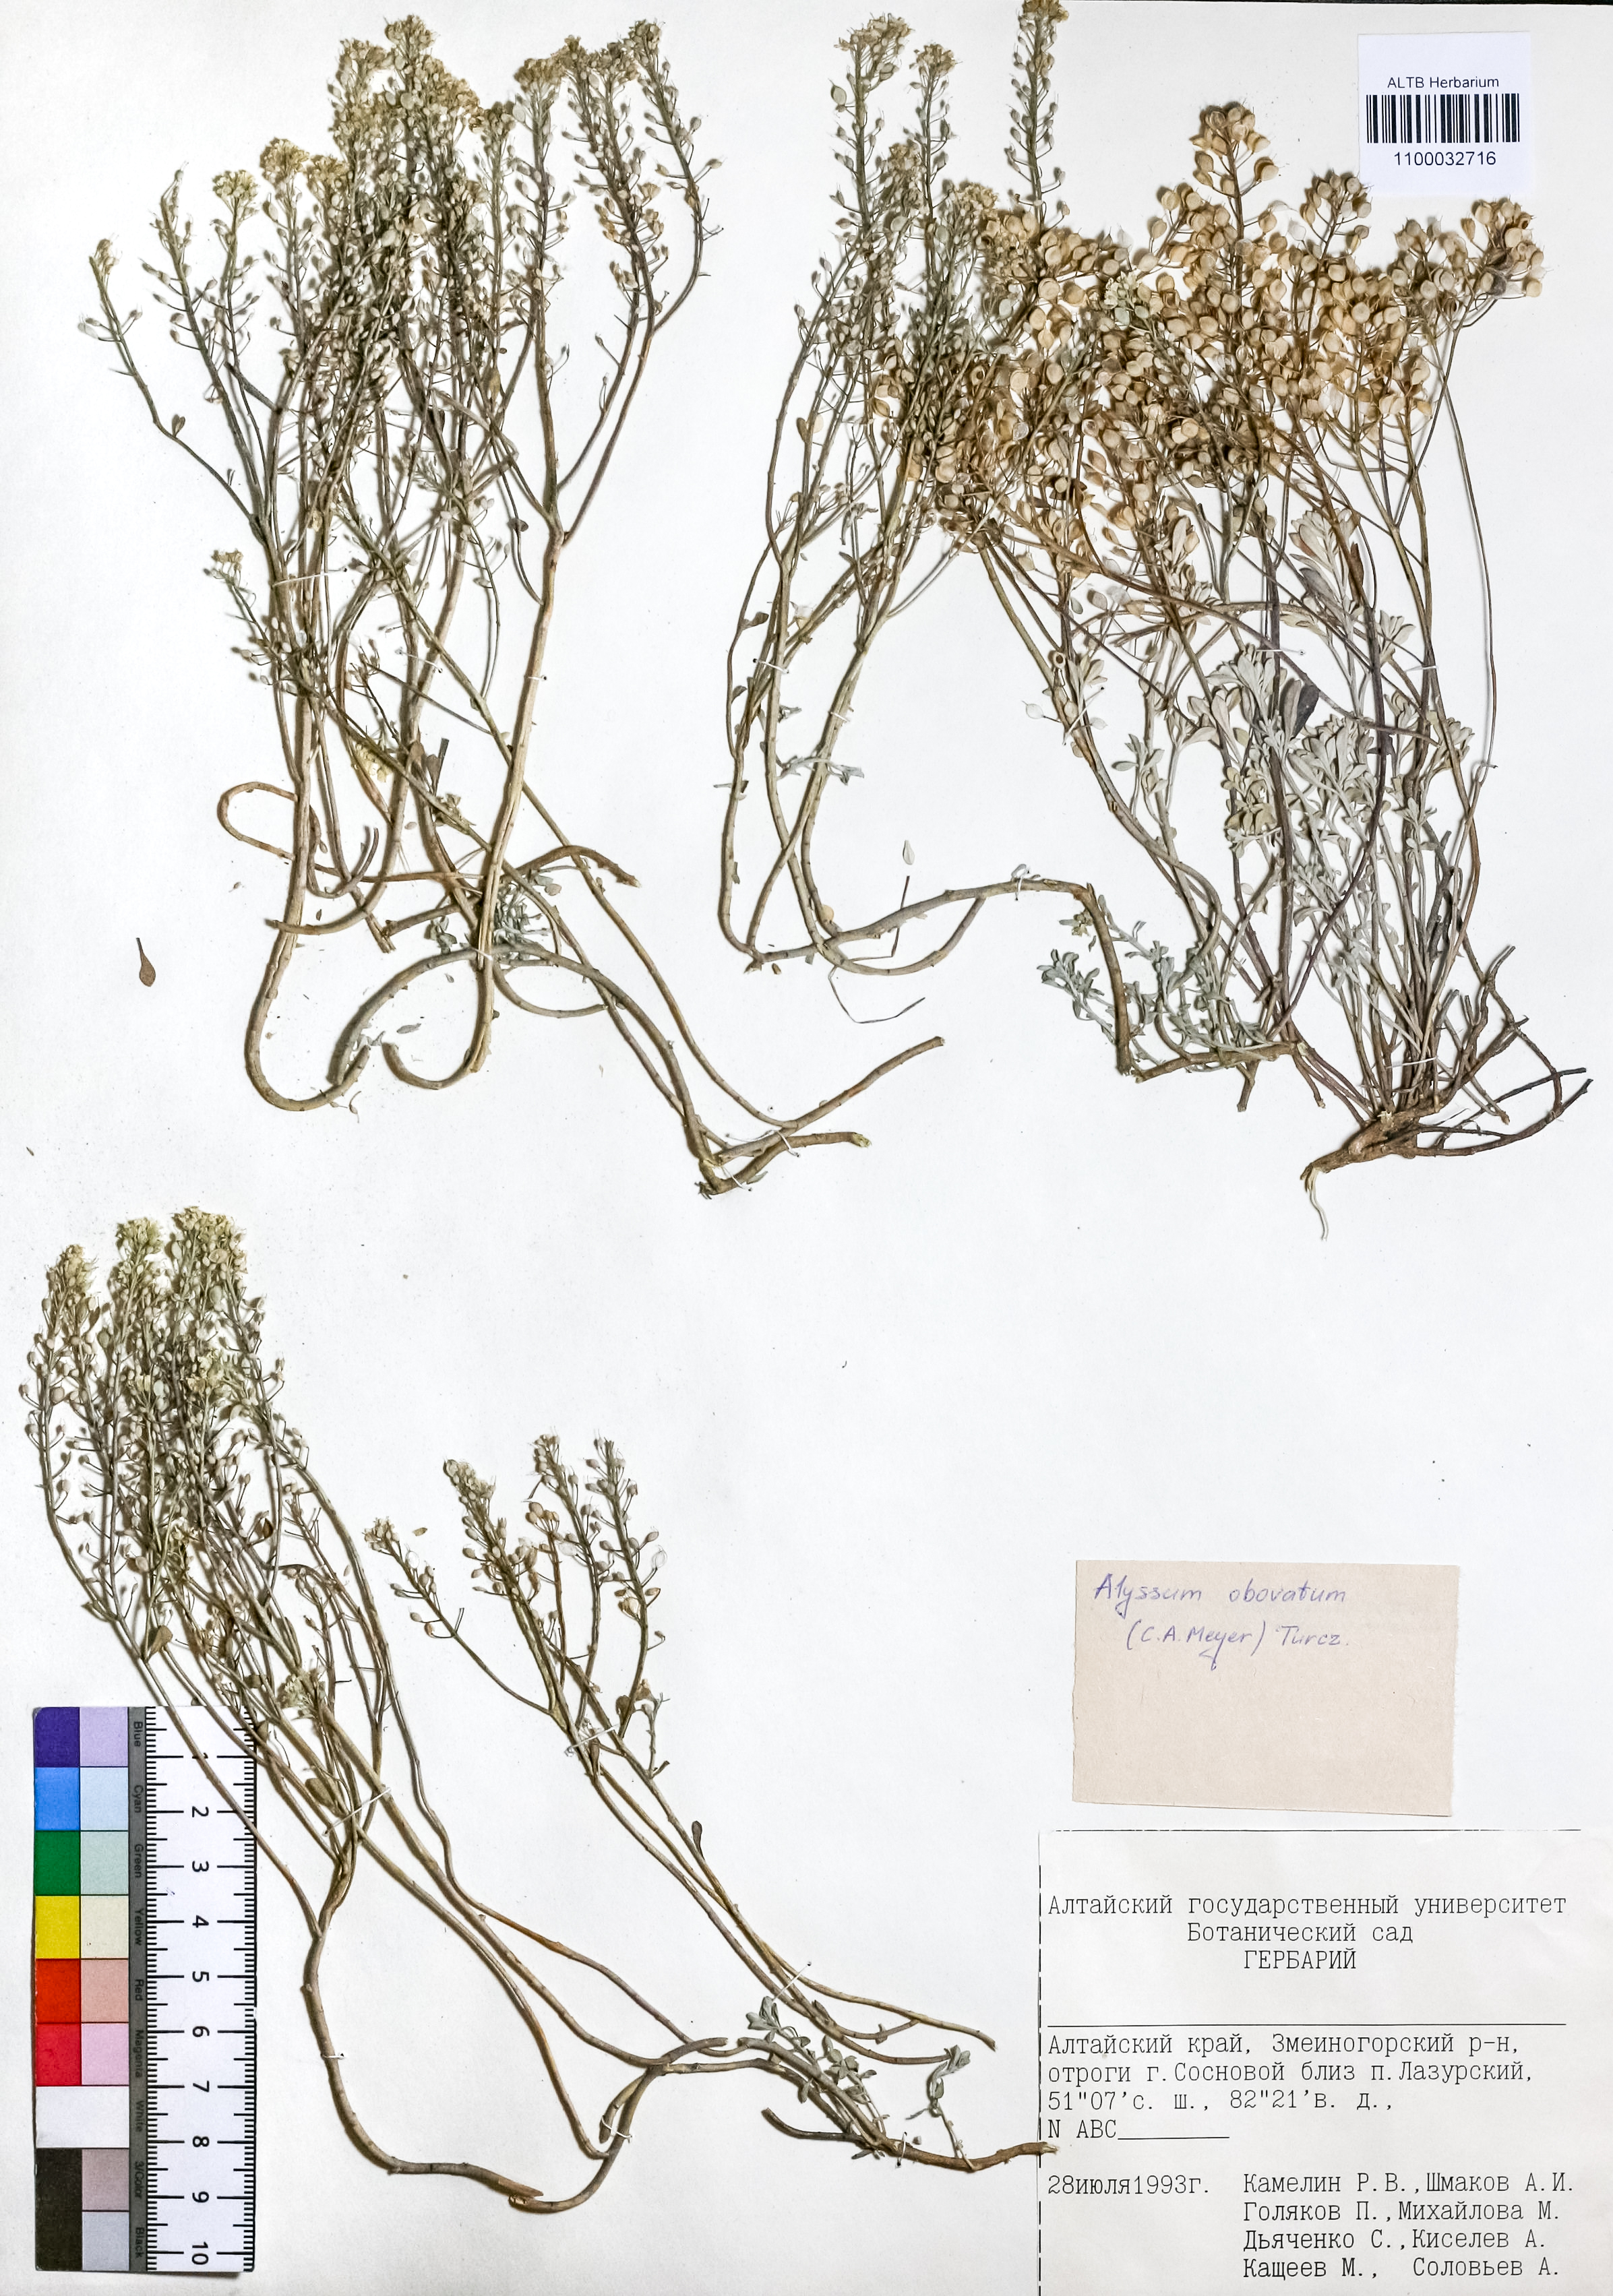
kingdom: Plantae
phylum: Tracheophyta
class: Magnoliopsida
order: Brassicales
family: Brassicaceae
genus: Odontarrhena
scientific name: Odontarrhena obovata
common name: American alyssum
